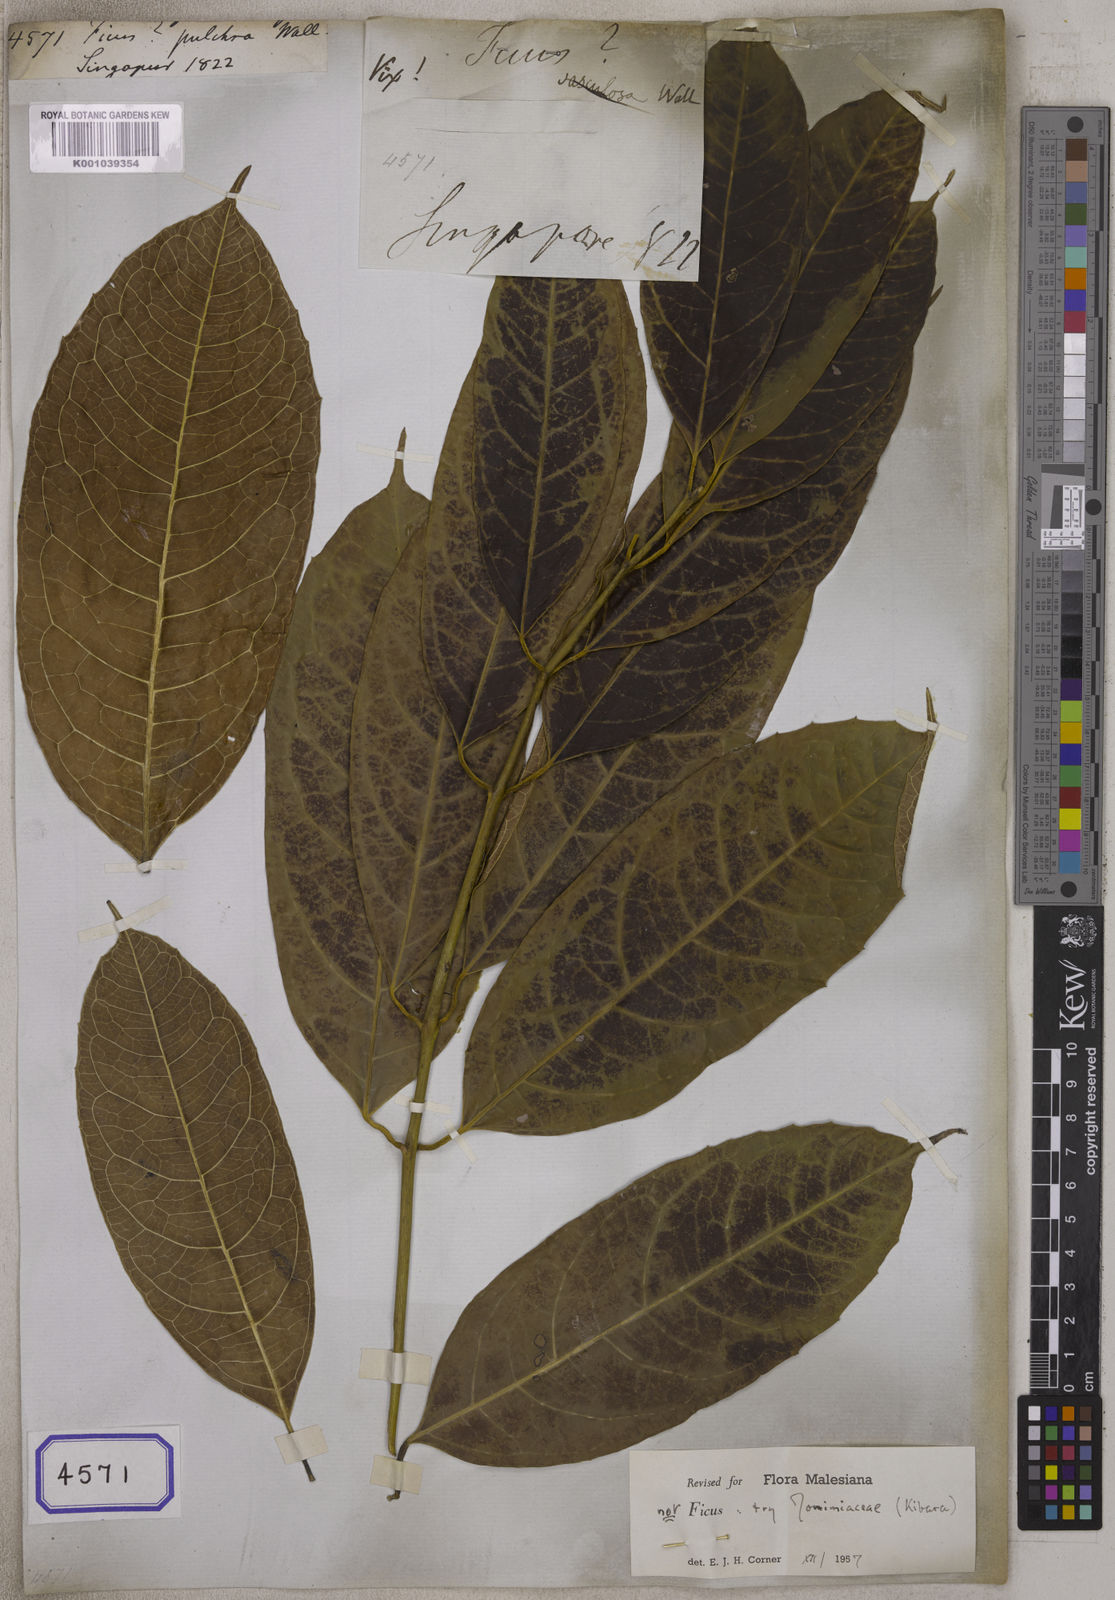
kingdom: Plantae
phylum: Tracheophyta
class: Magnoliopsida
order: Rosales
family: Moraceae
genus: Ficus
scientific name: Ficus
